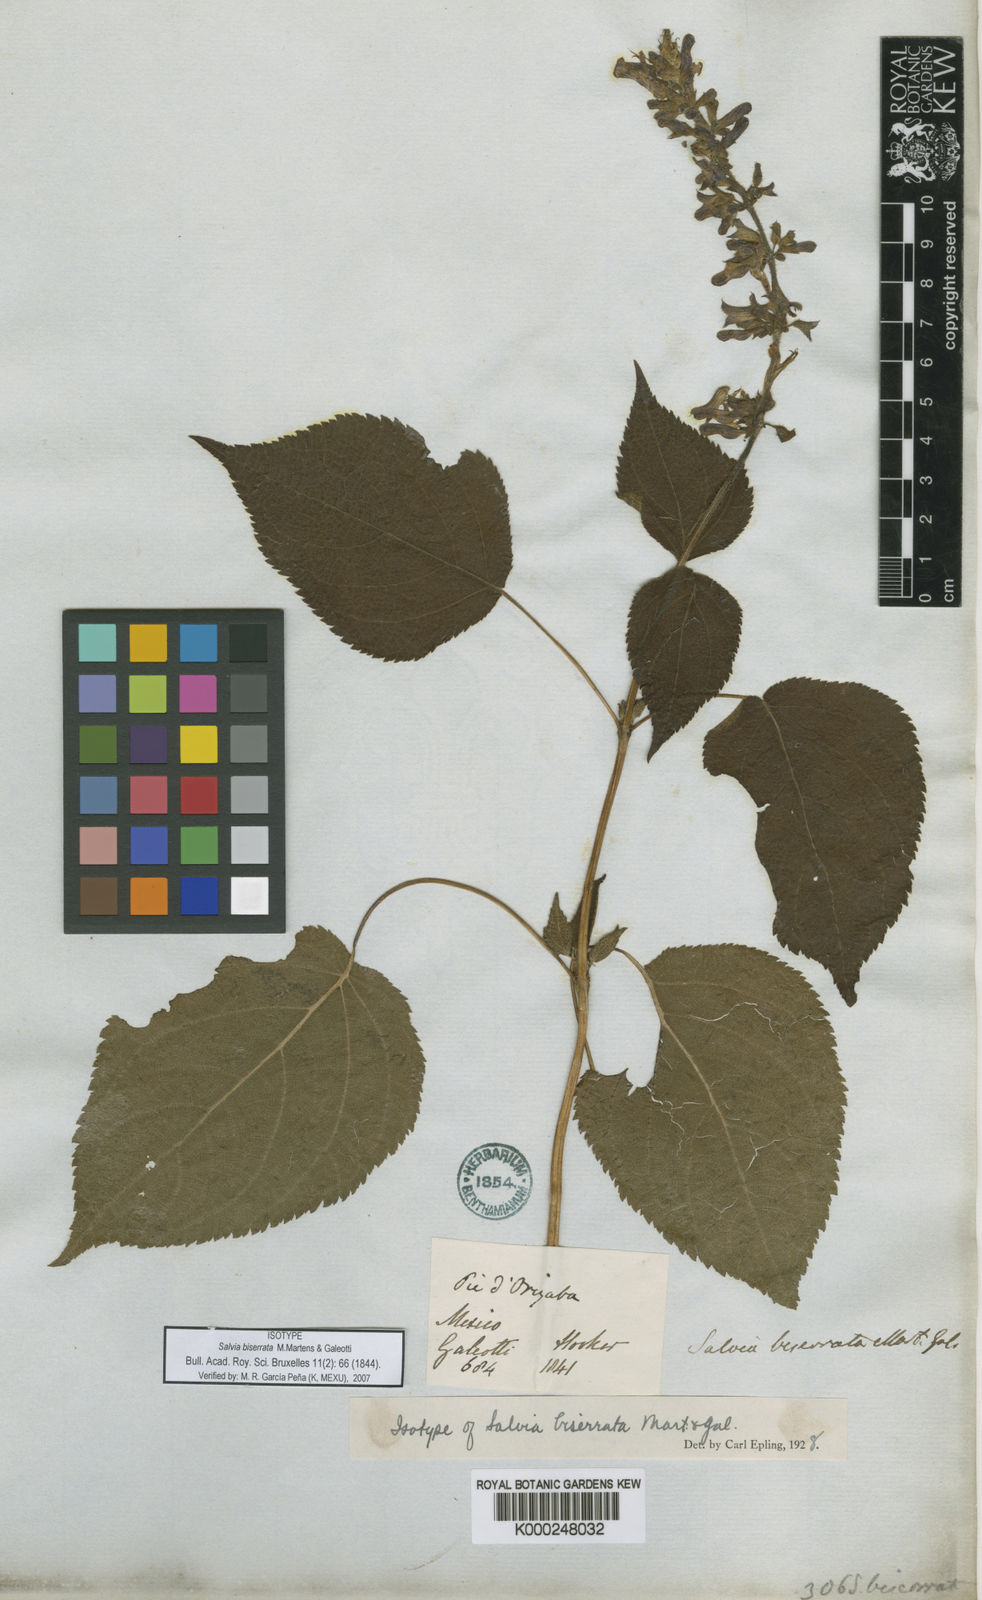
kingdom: Plantae
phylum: Tracheophyta
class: Magnoliopsida
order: Lamiales
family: Lamiaceae
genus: Salvia
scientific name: Salvia biserrata
